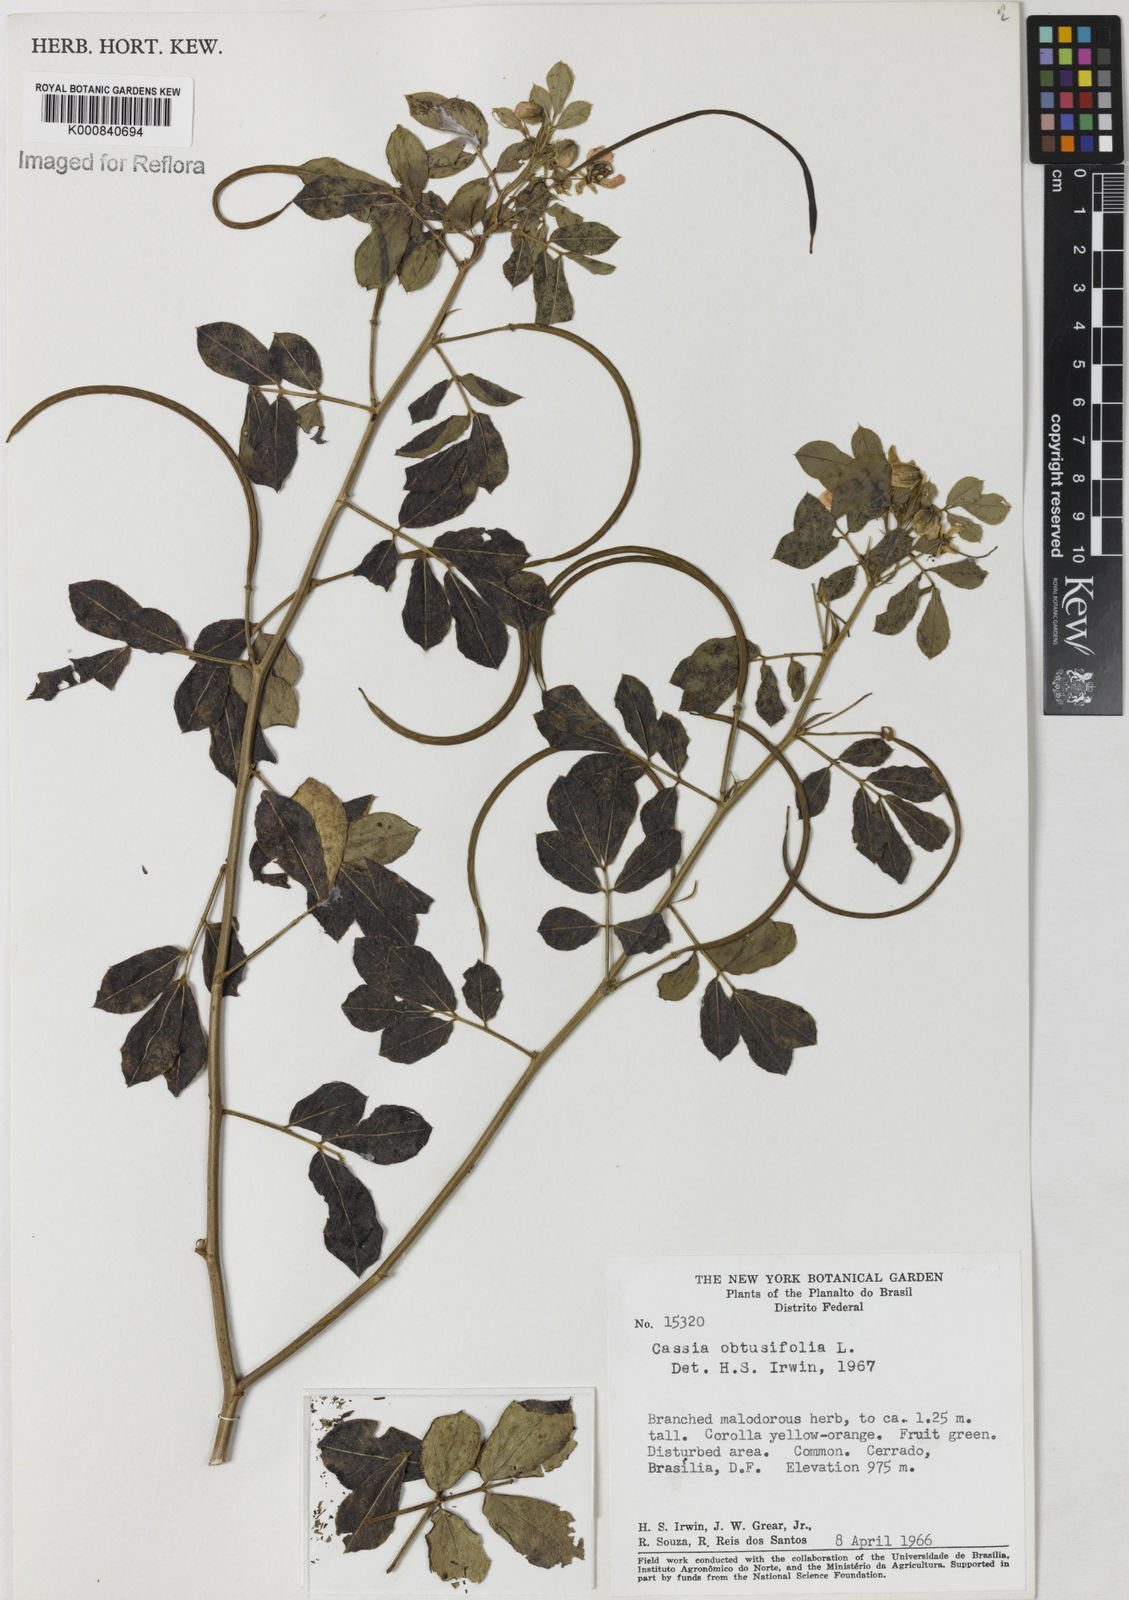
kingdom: Plantae
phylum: Tracheophyta
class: Magnoliopsida
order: Fabales
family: Fabaceae
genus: Senna
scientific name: Senna obtusifolia
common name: Java-bean
